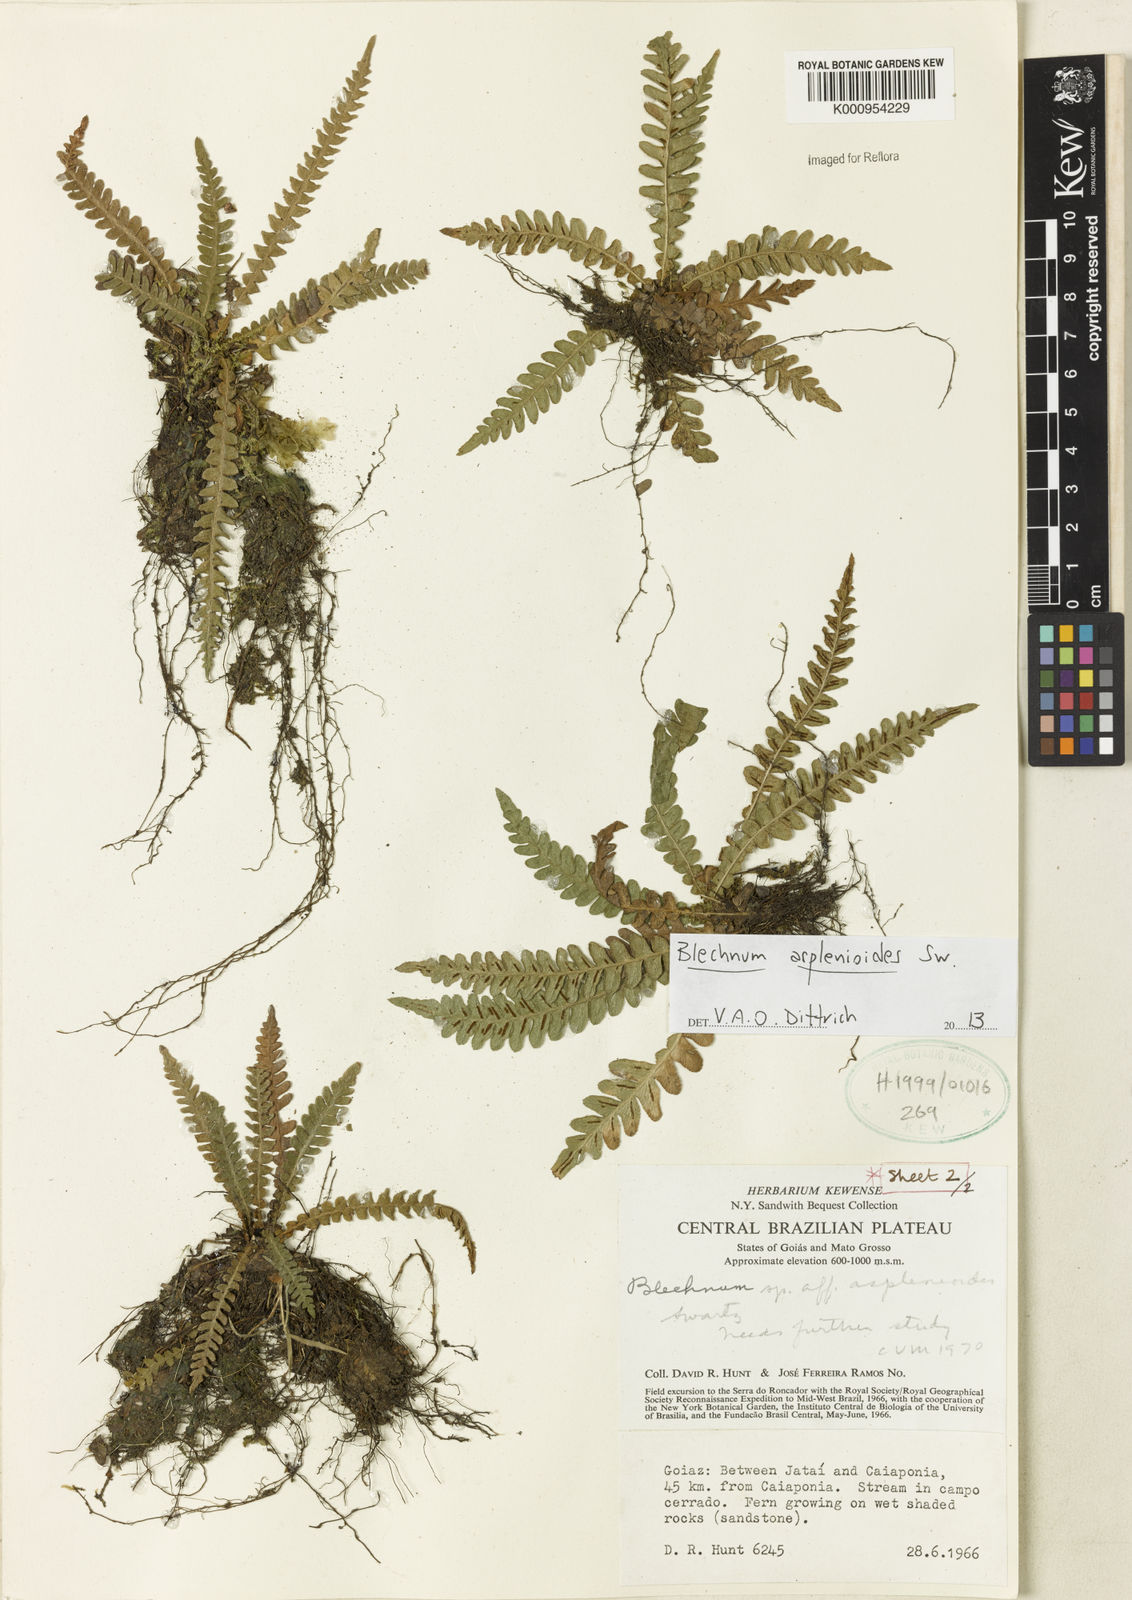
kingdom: Plantae
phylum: Tracheophyta
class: Polypodiopsida
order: Polypodiales
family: Blechnaceae
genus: Blechnum
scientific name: Blechnum asplenioides
